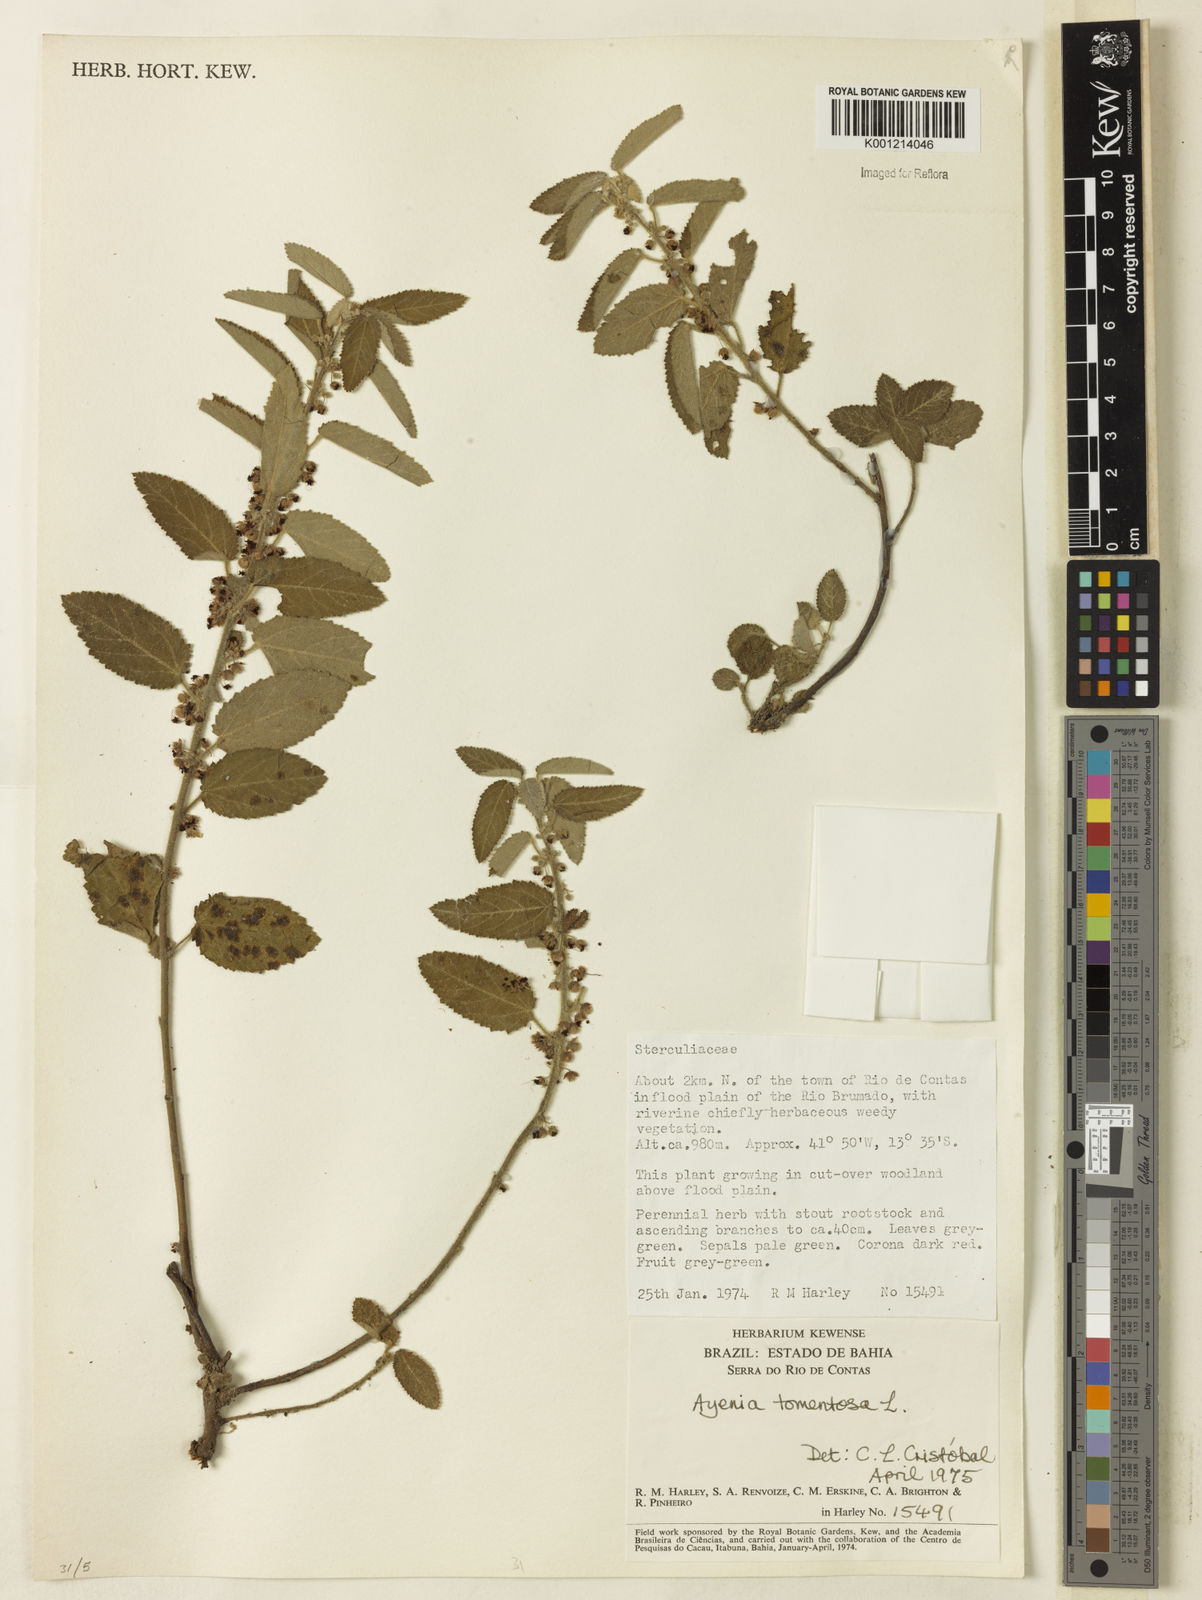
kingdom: Plantae
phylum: Tracheophyta
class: Magnoliopsida
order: Malvales
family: Malvaceae
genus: Ayenia
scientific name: Ayenia tomentosa
